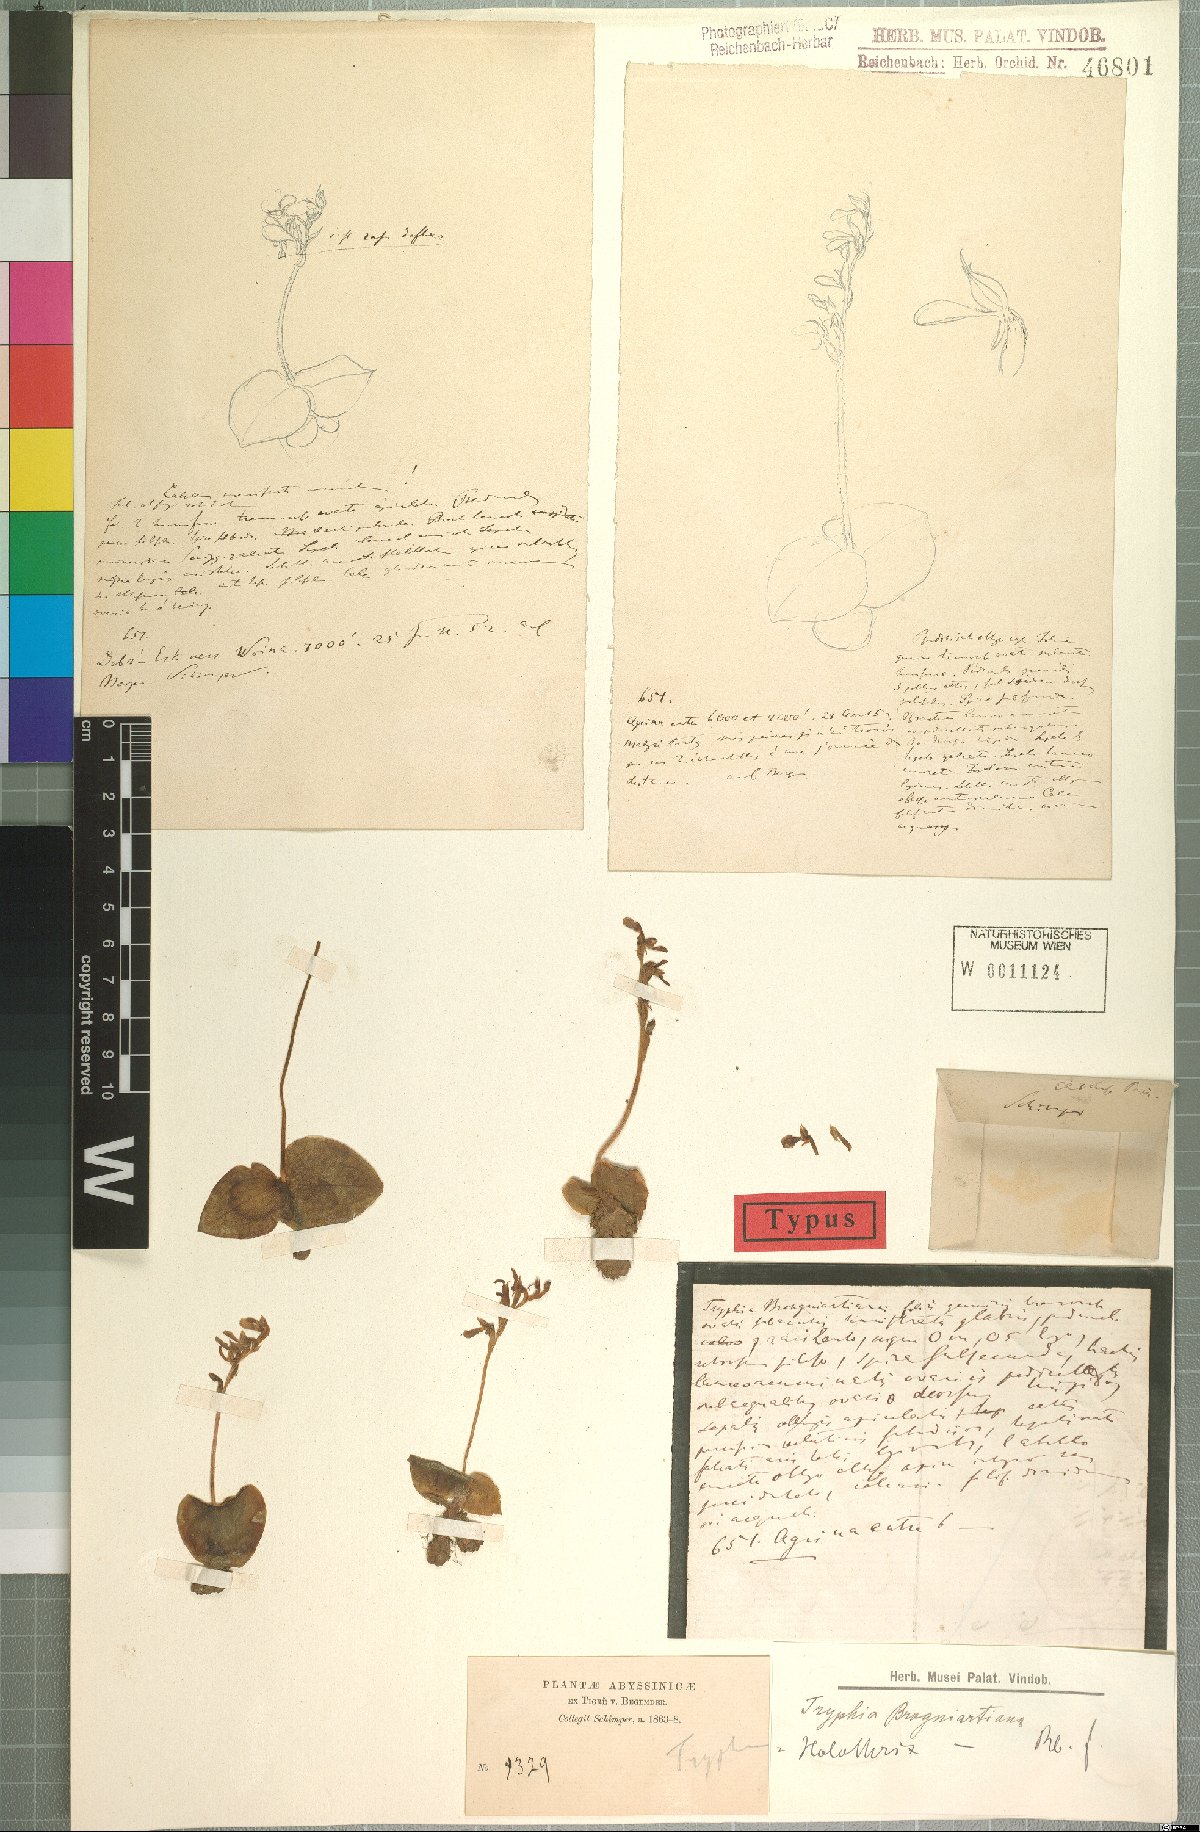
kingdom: Plantae
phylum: Tracheophyta
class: Liliopsida
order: Asparagales
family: Orchidaceae
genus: Holothrix
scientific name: Holothrix brongniartiana
